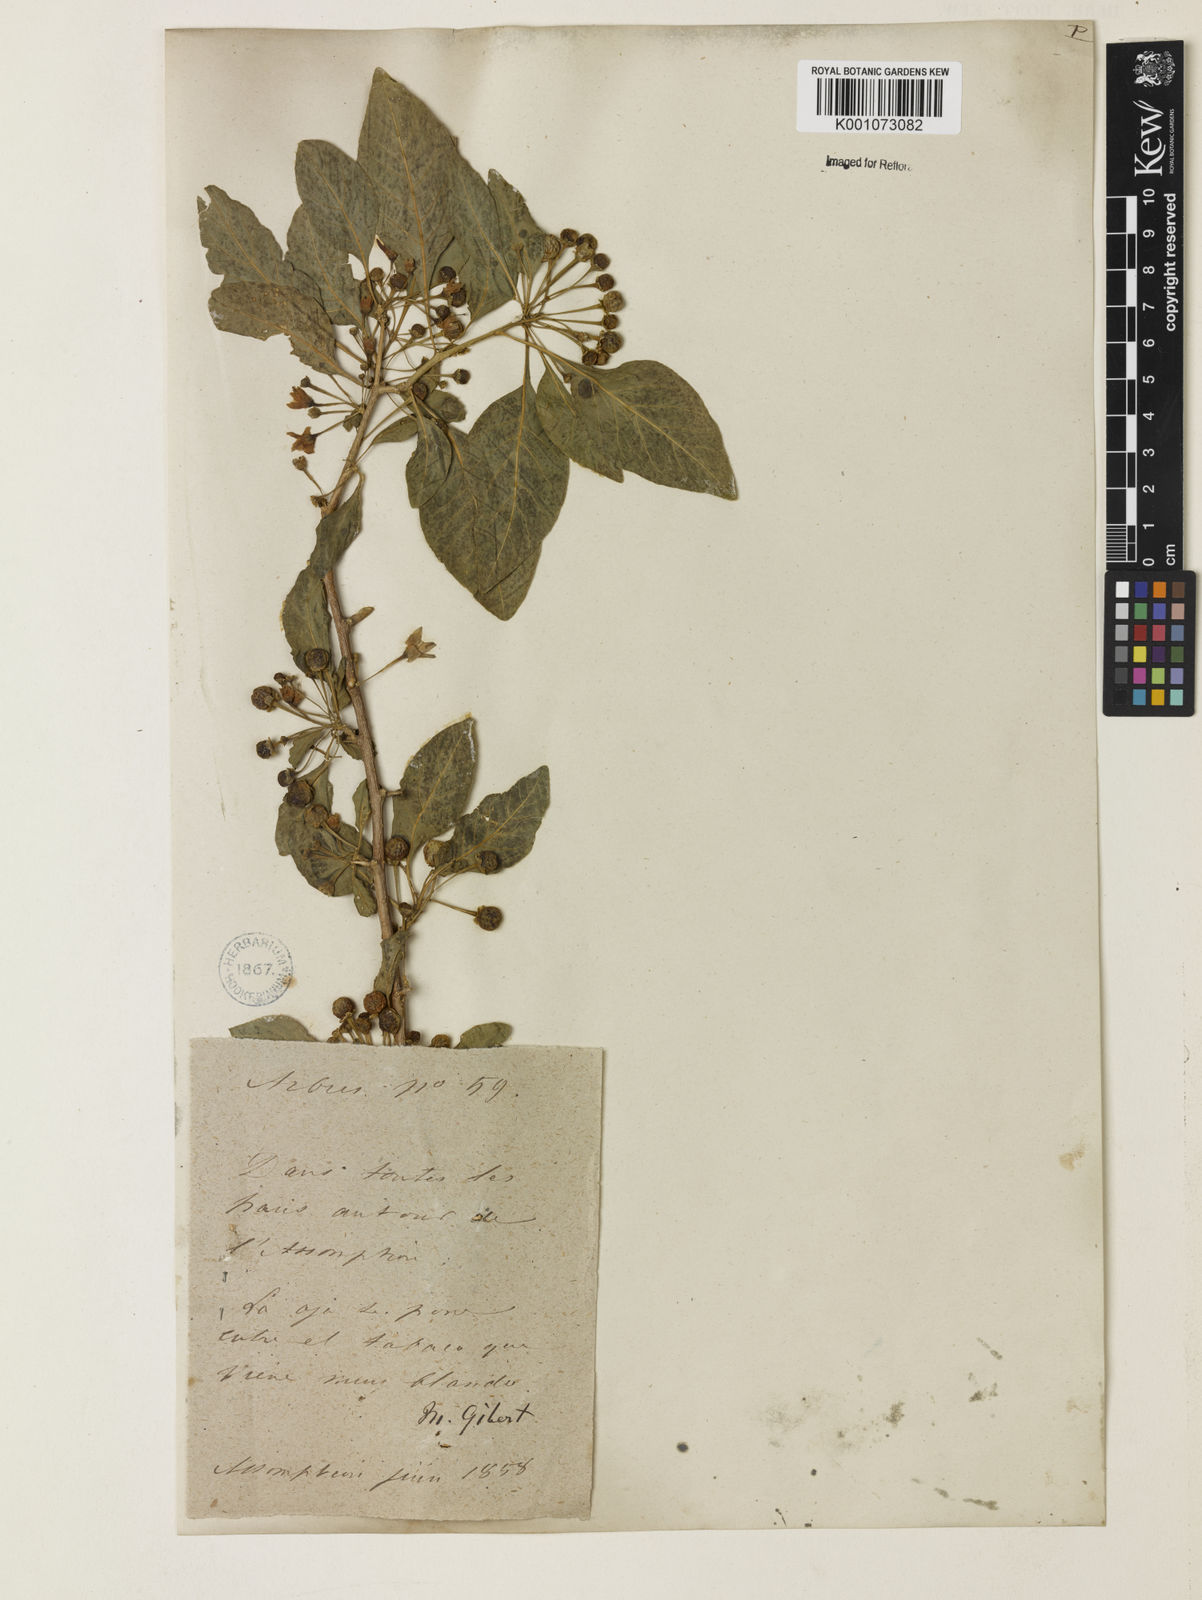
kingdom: Plantae
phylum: Tracheophyta
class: Magnoliopsida
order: Solanales
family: Solanaceae
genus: Vassobia
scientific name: Vassobia breviflora
